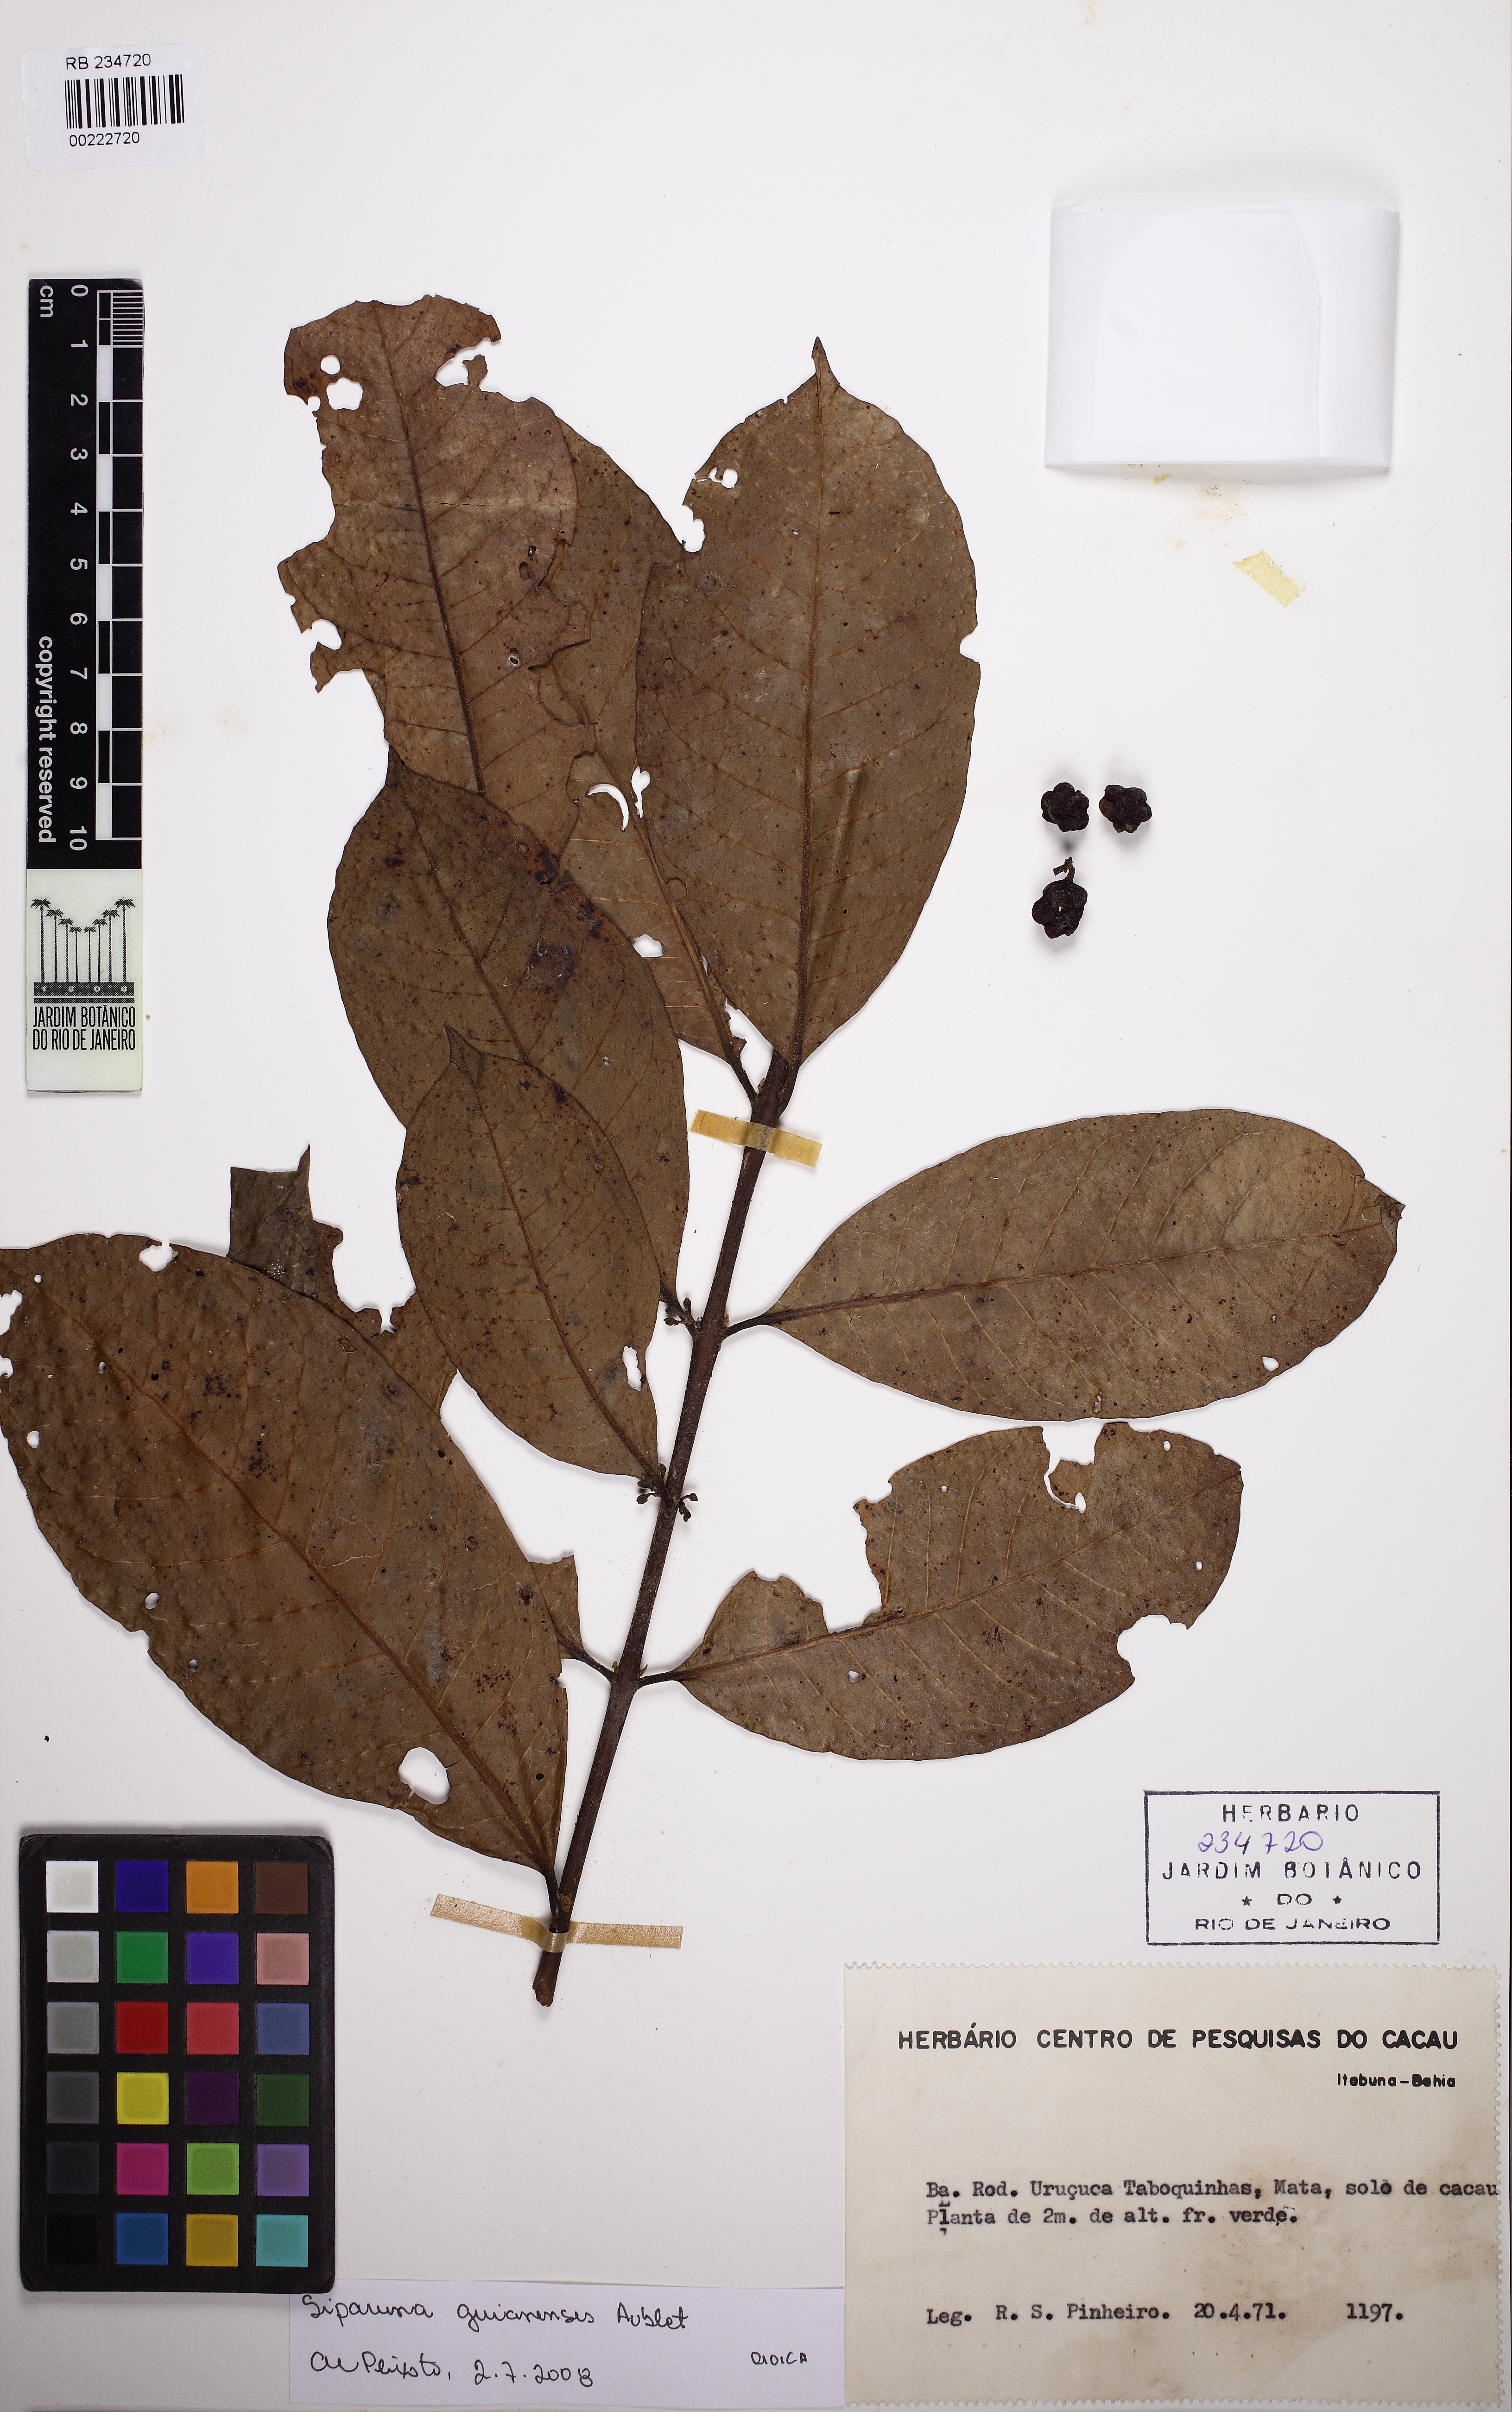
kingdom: Plantae
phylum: Tracheophyta
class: Magnoliopsida
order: Laurales
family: Siparunaceae
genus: Siparuna
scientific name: Siparuna guianensis
